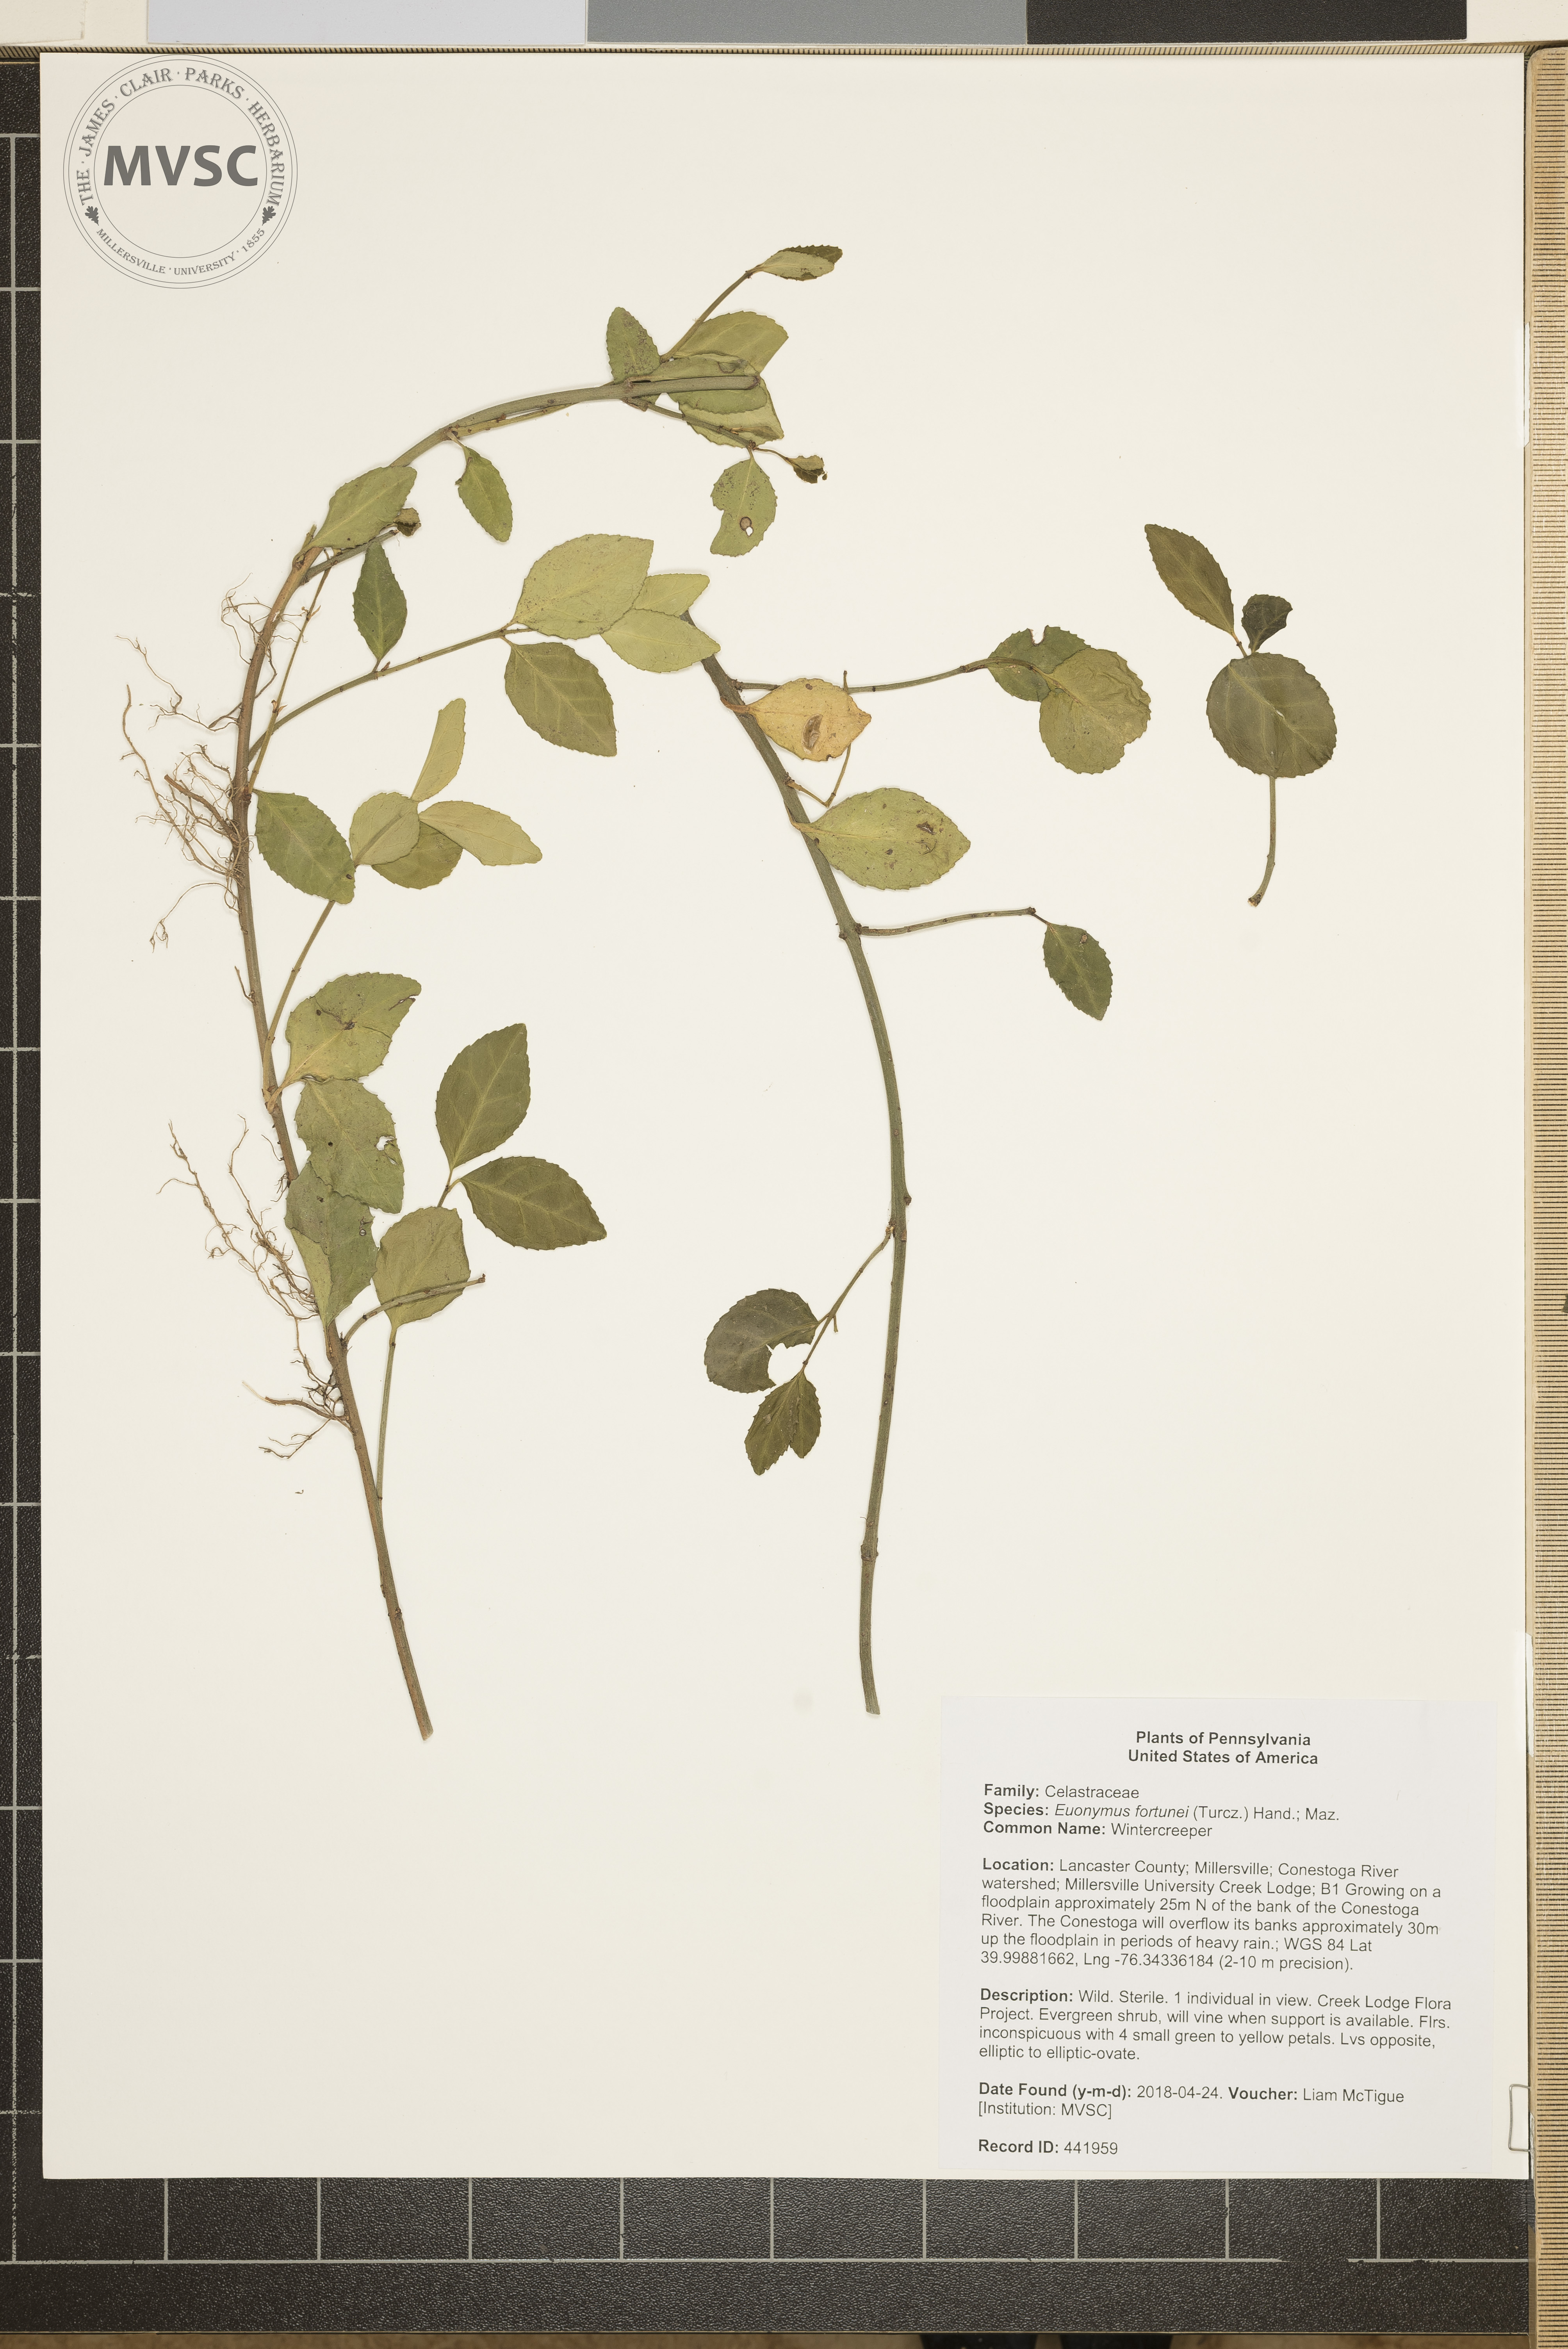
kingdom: Plantae
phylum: Tracheophyta
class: Magnoliopsida
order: Celastrales
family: Celastraceae
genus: Euonymus
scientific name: Euonymus fortunei
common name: Wintercreeper
